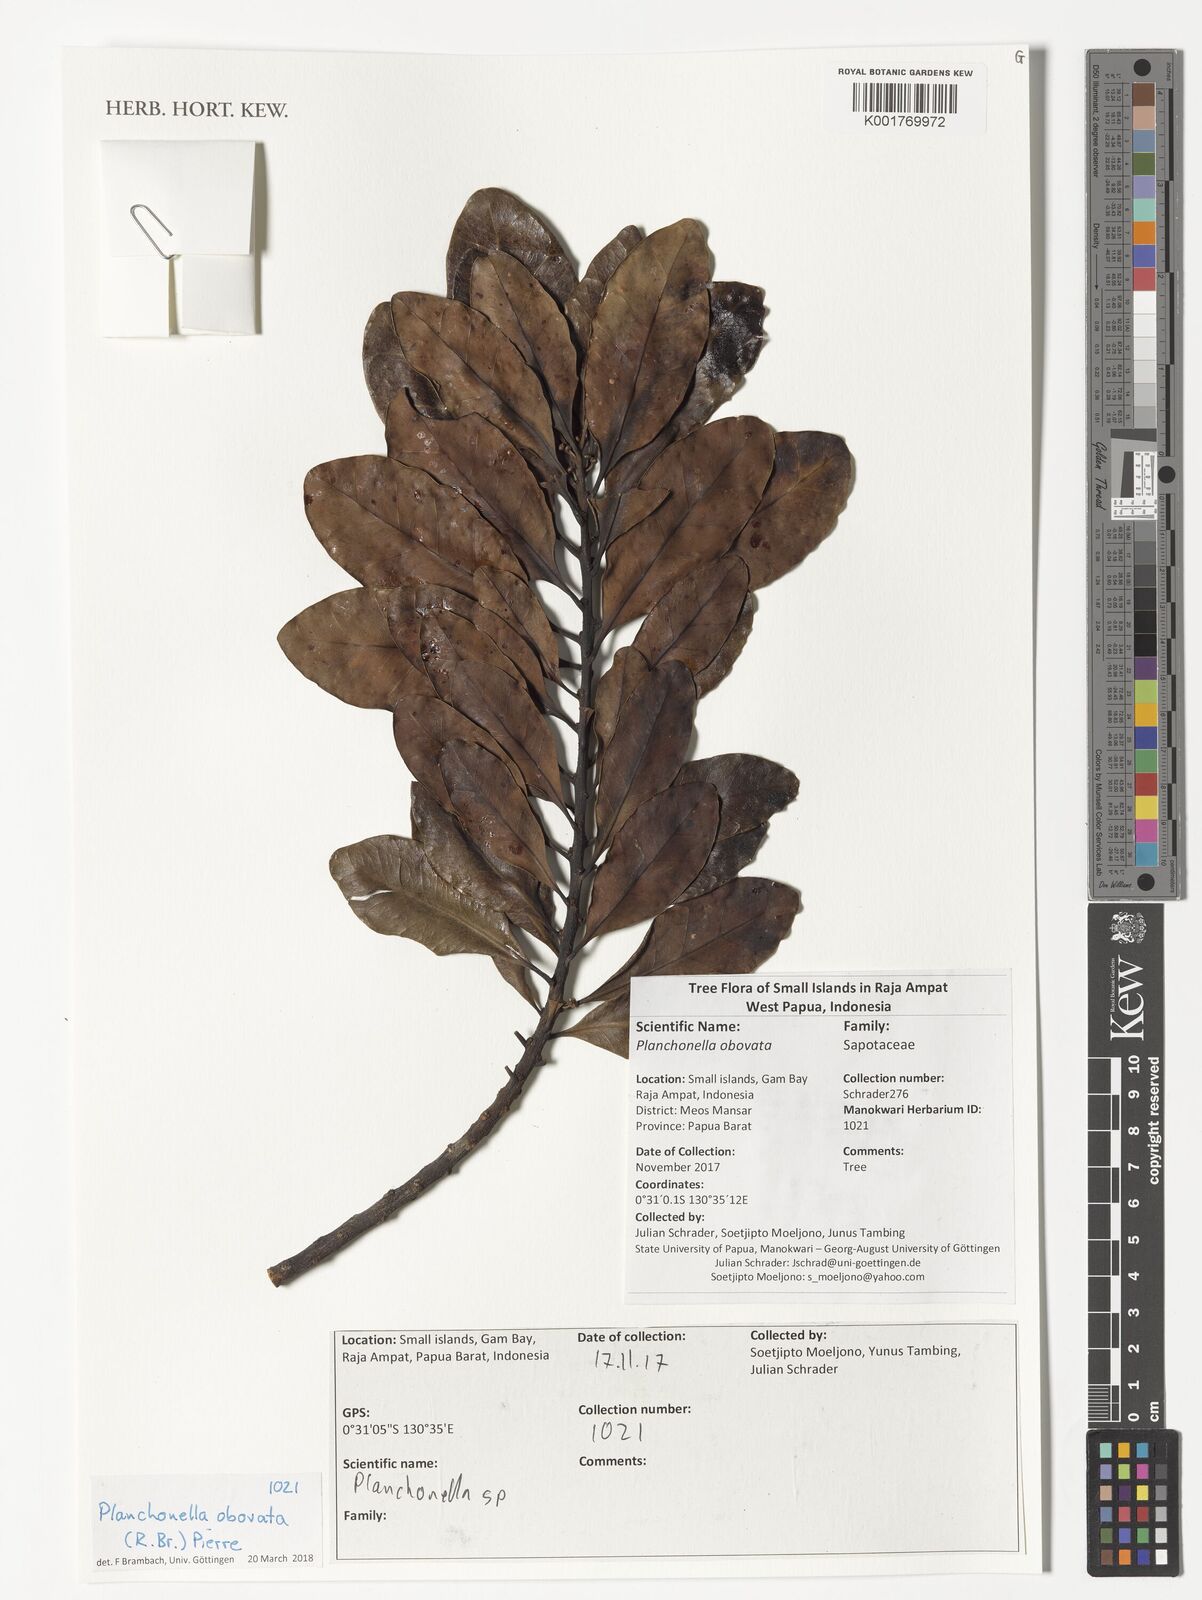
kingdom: Plantae
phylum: Tracheophyta
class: Magnoliopsida
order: Ericales
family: Sapotaceae
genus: Planchonella
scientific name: Planchonella obovata
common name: Black-ash
